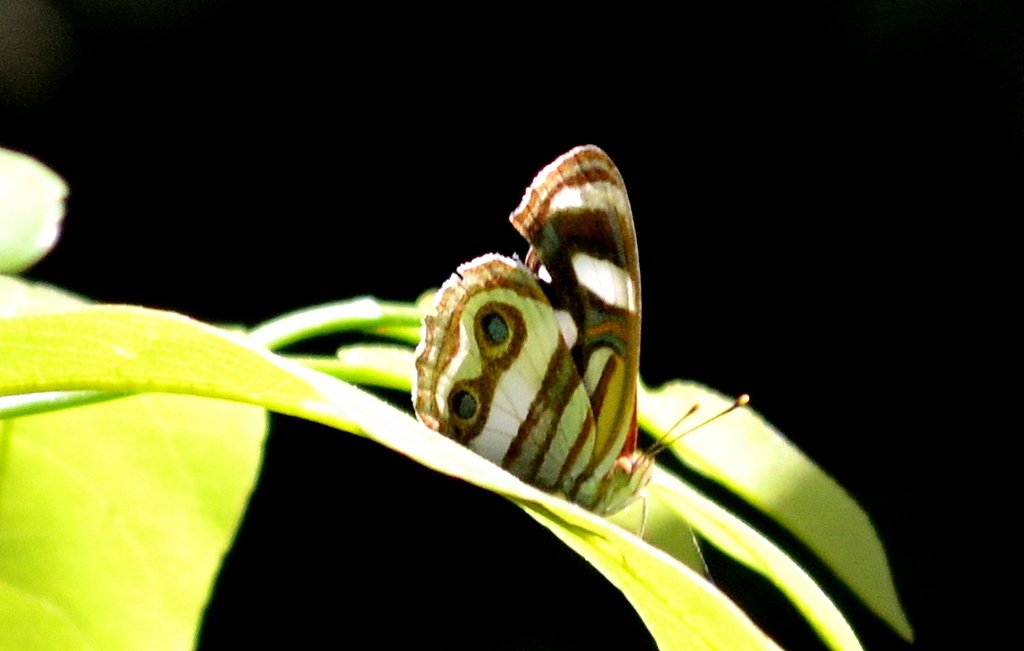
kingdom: Animalia
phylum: Arthropoda
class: Insecta
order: Lepidoptera
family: Nymphalidae
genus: Dynamine
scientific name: Dynamine dyonis
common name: Blue-eyed Sailor
